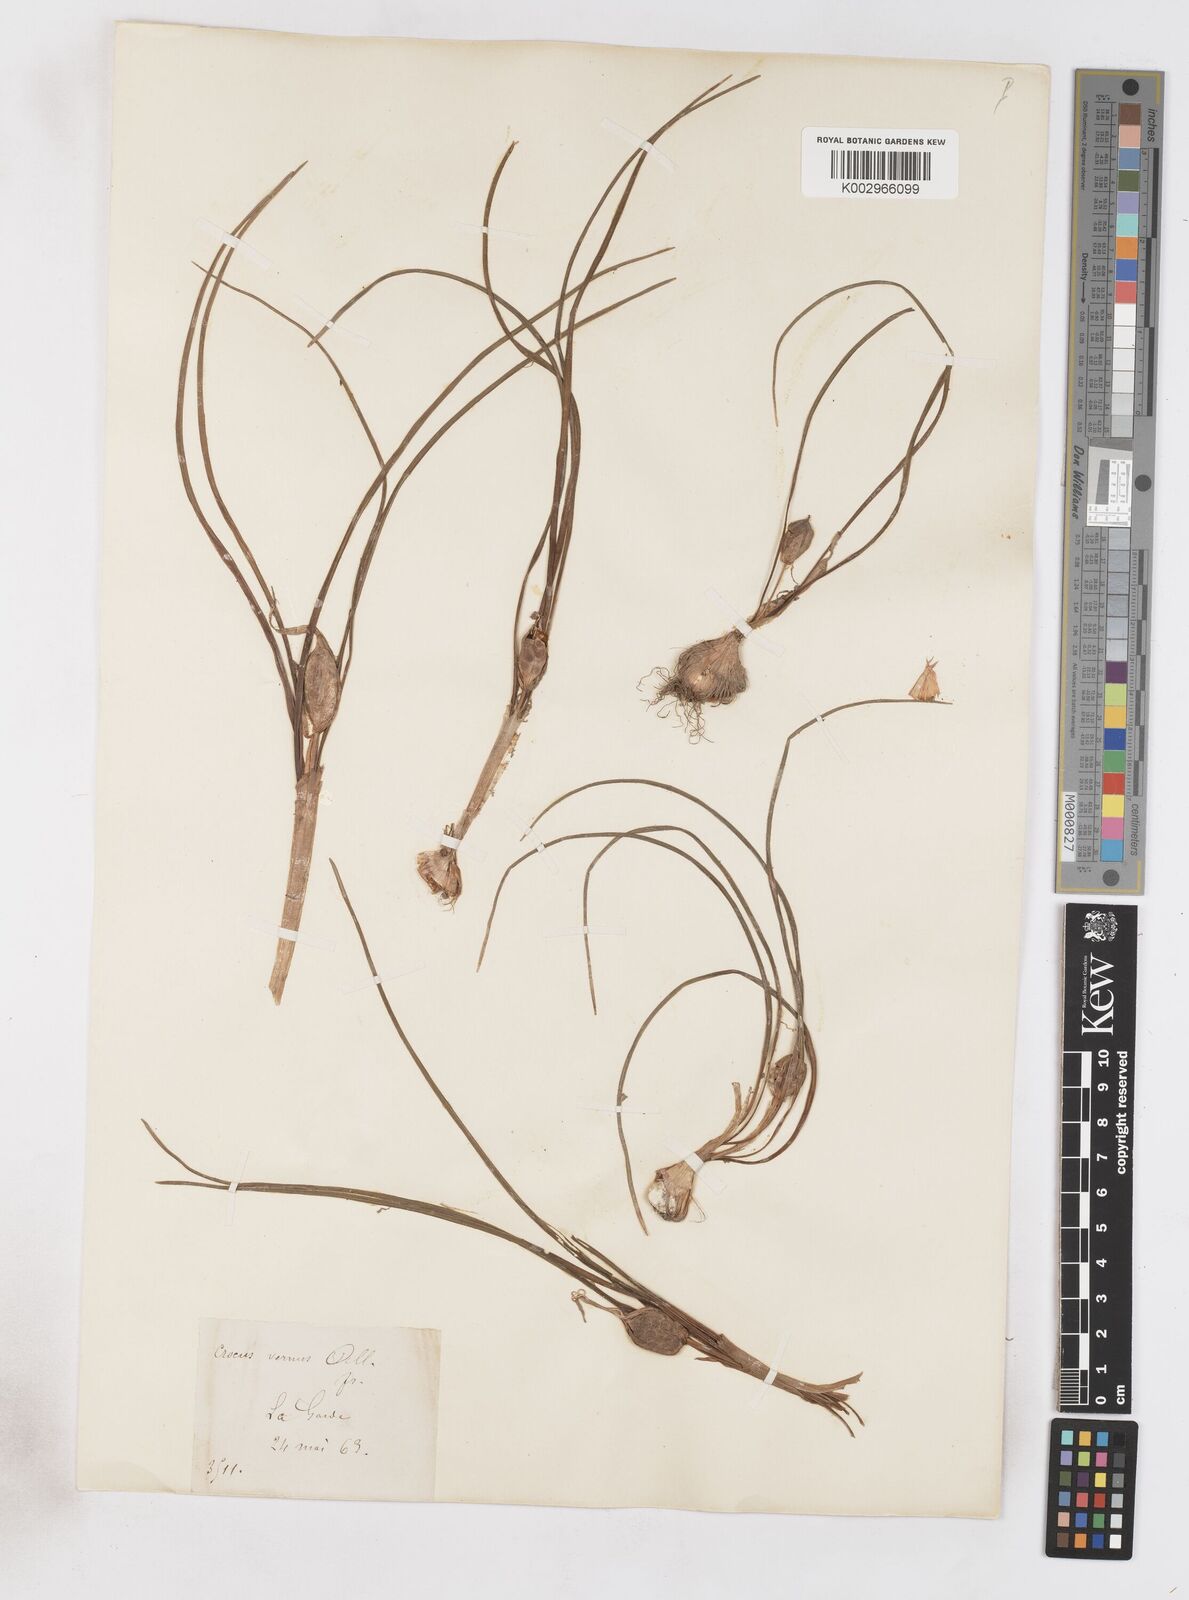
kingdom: Plantae
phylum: Tracheophyta
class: Liliopsida
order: Asparagales
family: Iridaceae
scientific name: Iridaceae
